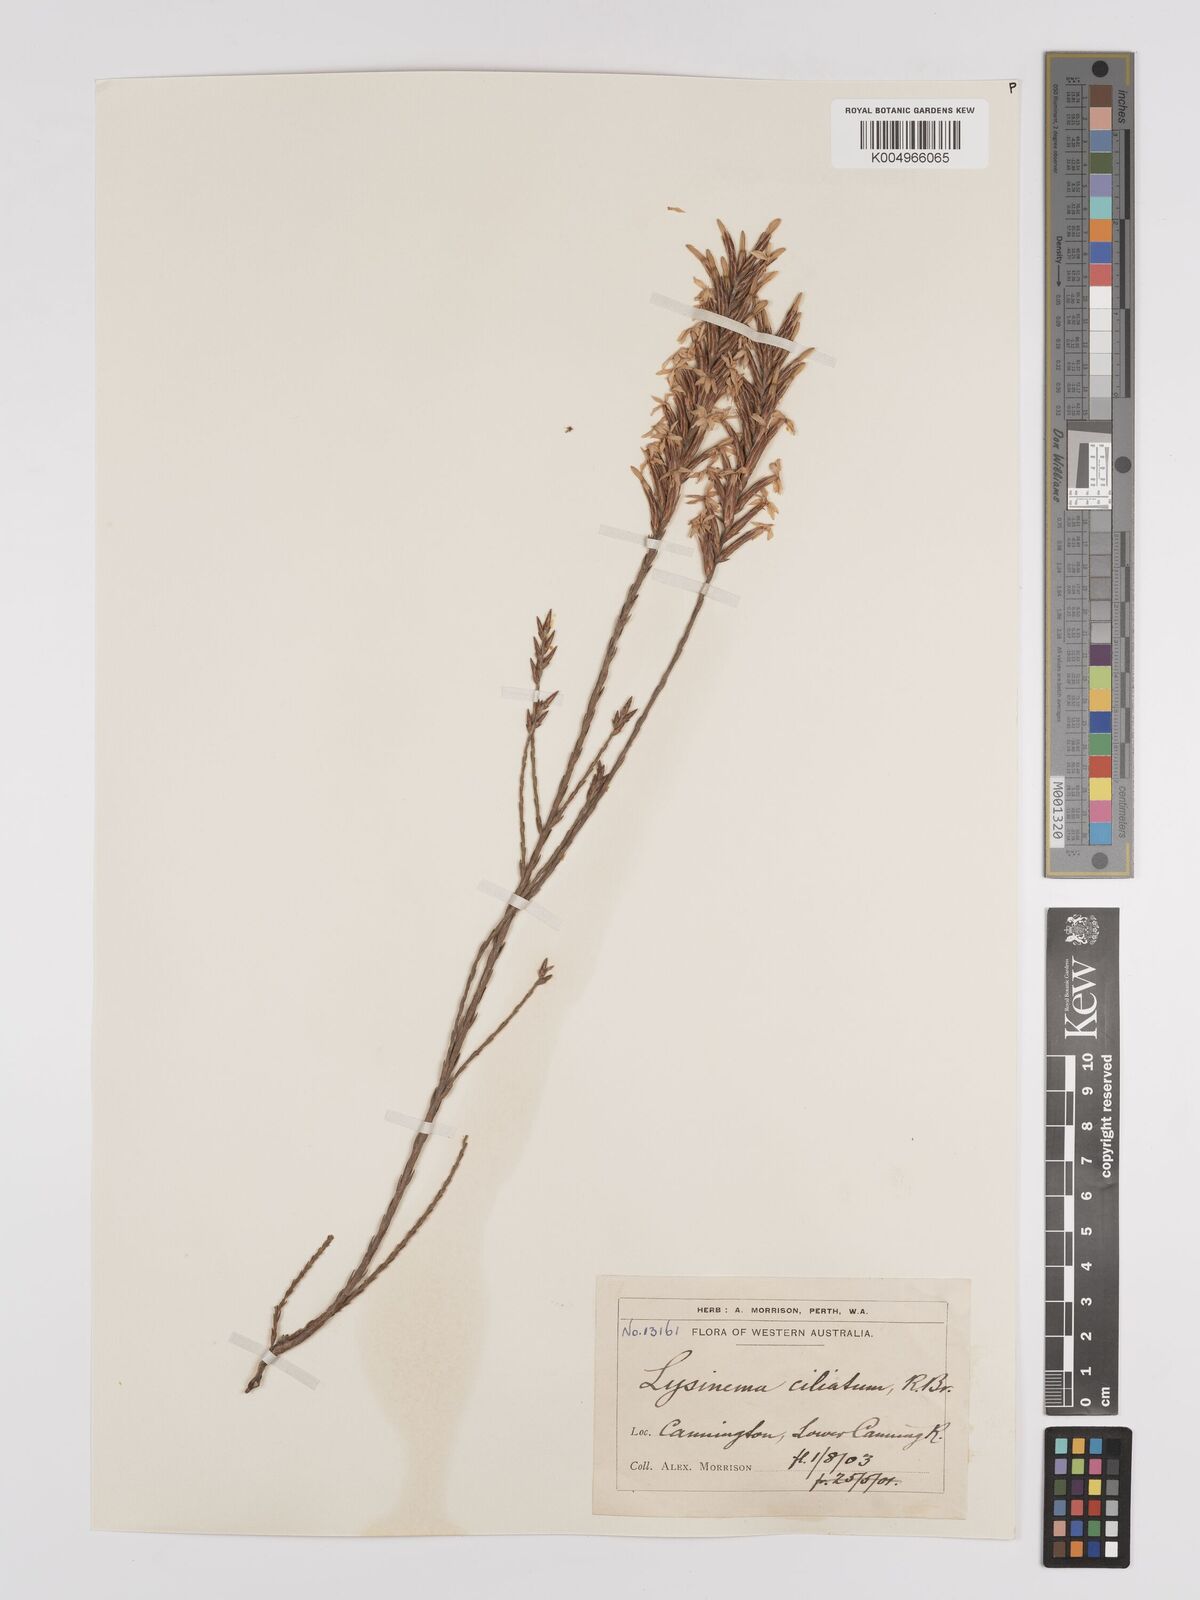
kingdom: Plantae
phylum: Tracheophyta
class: Magnoliopsida
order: Ericales
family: Ericaceae
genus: Lysinema
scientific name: Lysinema ciliatum
